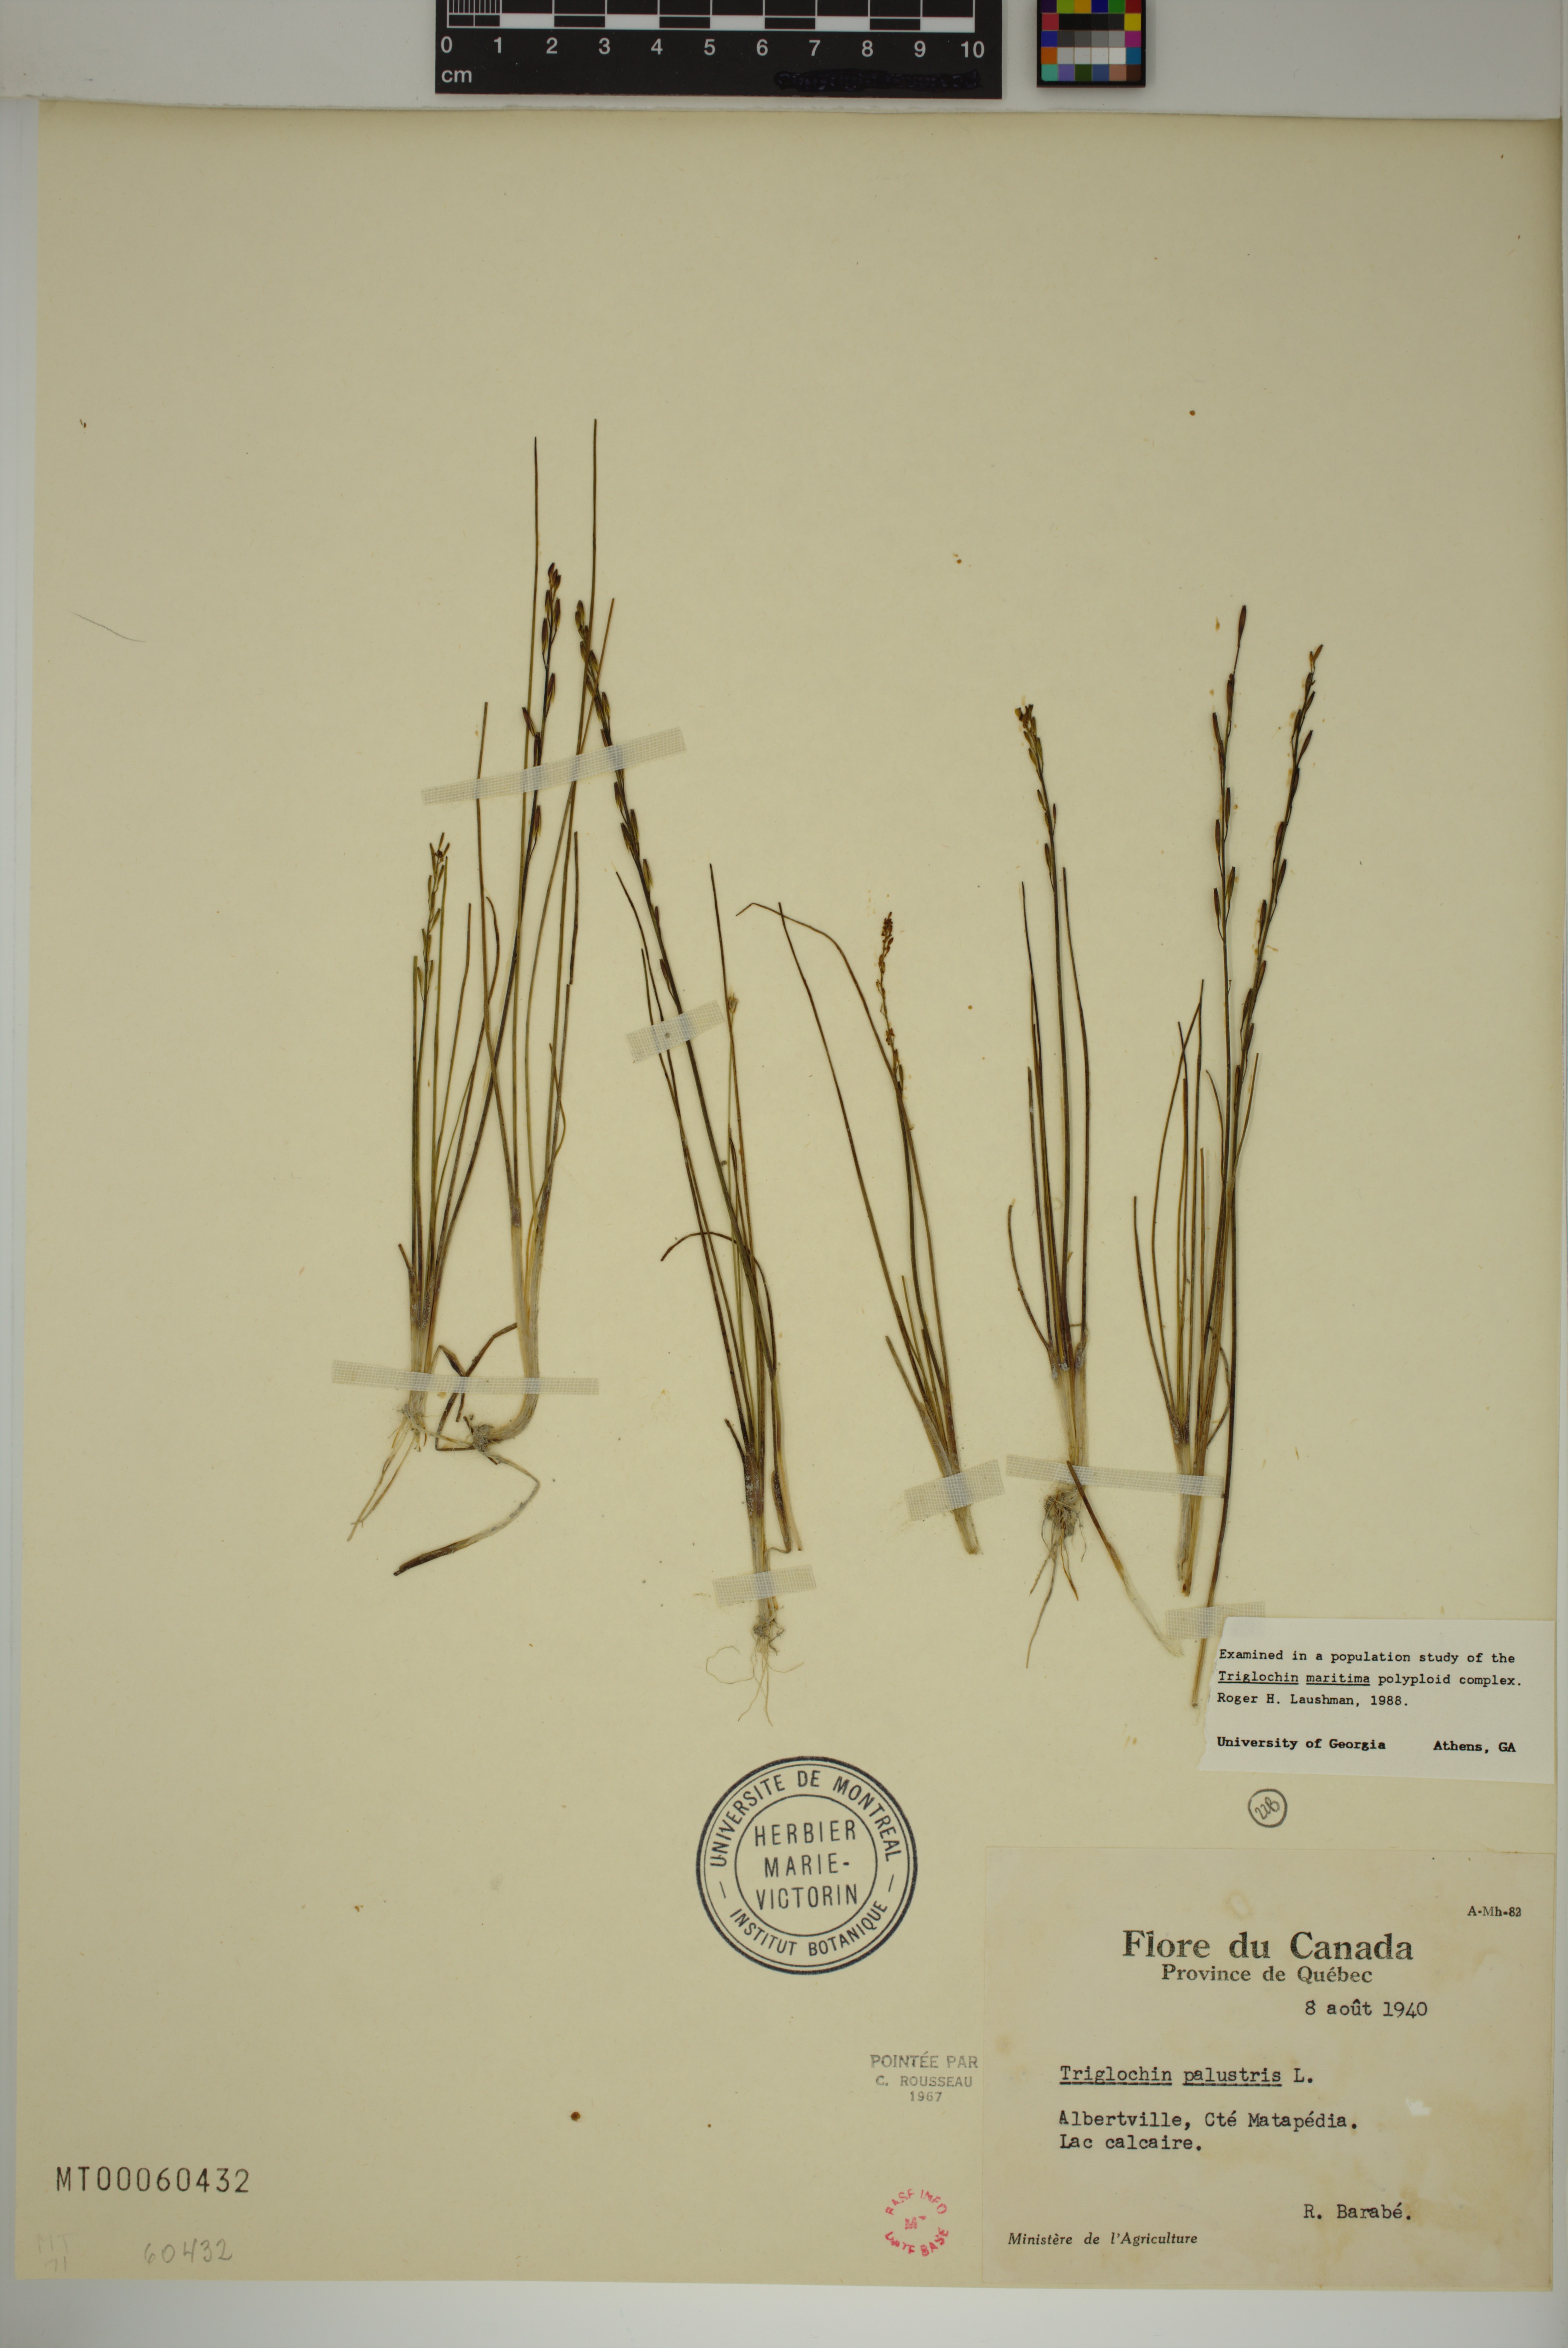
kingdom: Plantae
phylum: Tracheophyta
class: Liliopsida
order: Alismatales
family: Juncaginaceae
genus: Triglochin
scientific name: Triglochin palustris
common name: Marsh arrowgrass
